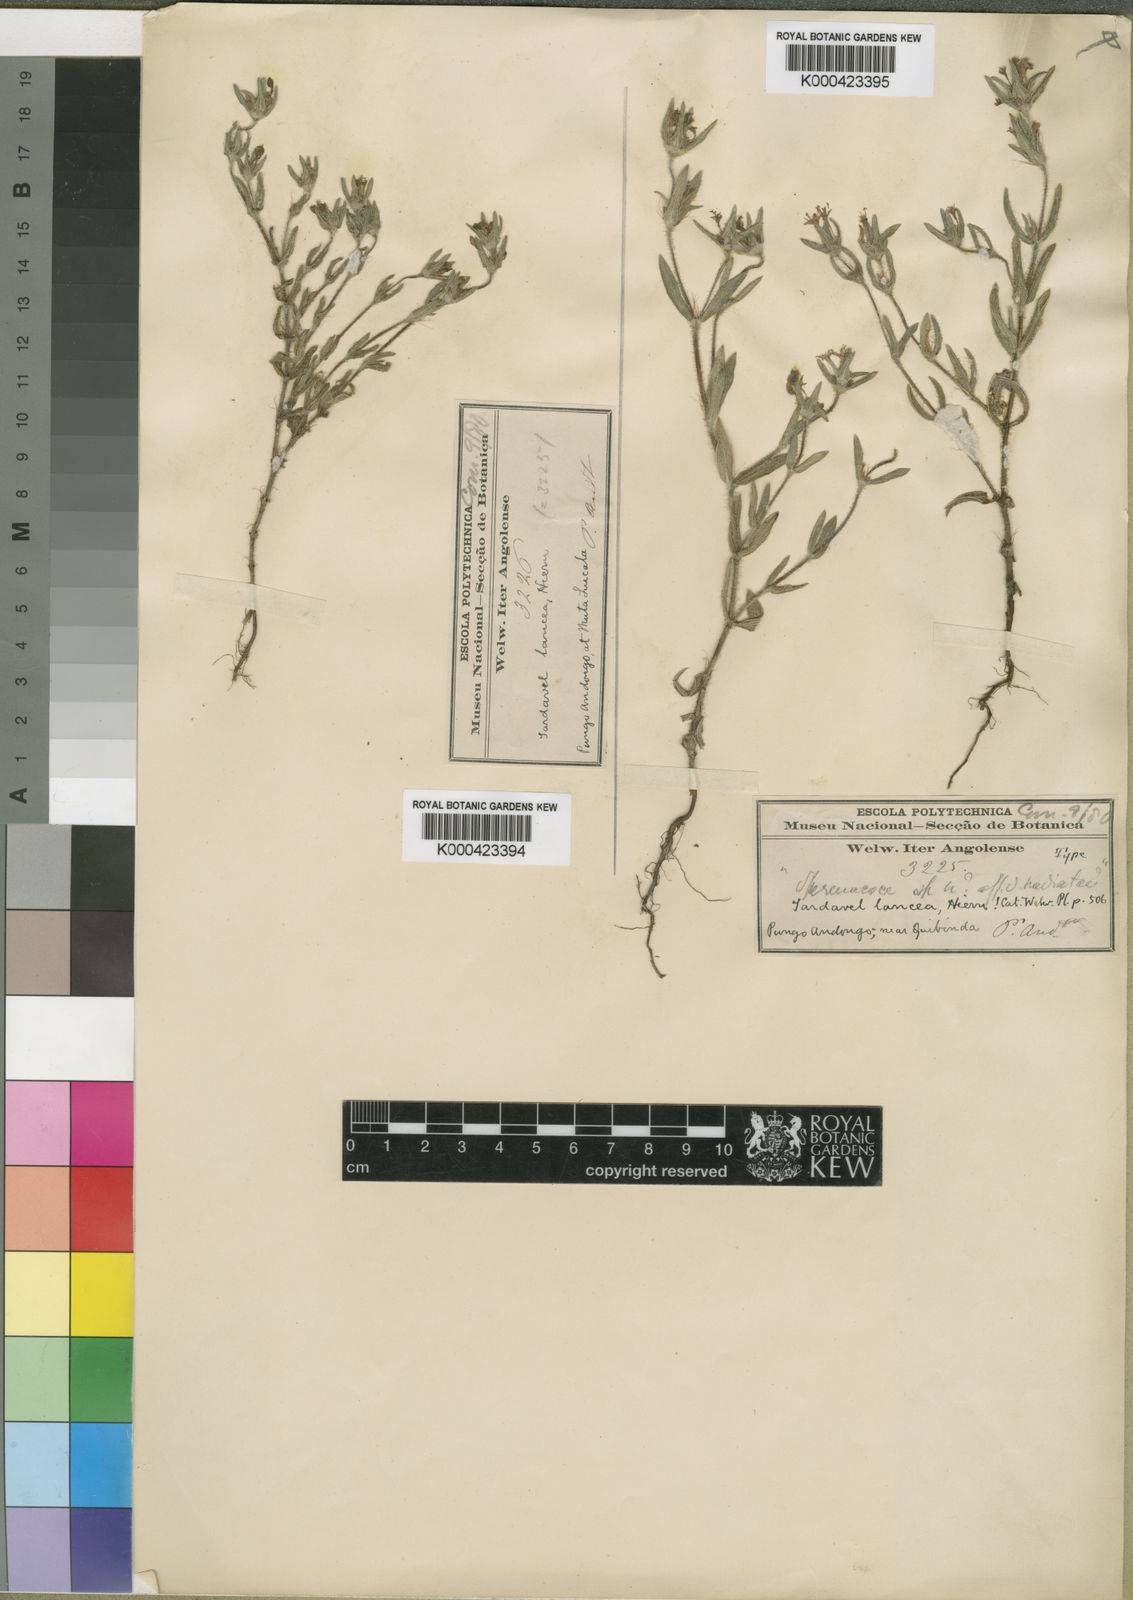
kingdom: Plantae
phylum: Tracheophyta
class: Magnoliopsida
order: Gentianales
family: Rubiaceae
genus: Spermacoce
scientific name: Spermacoce lancea
